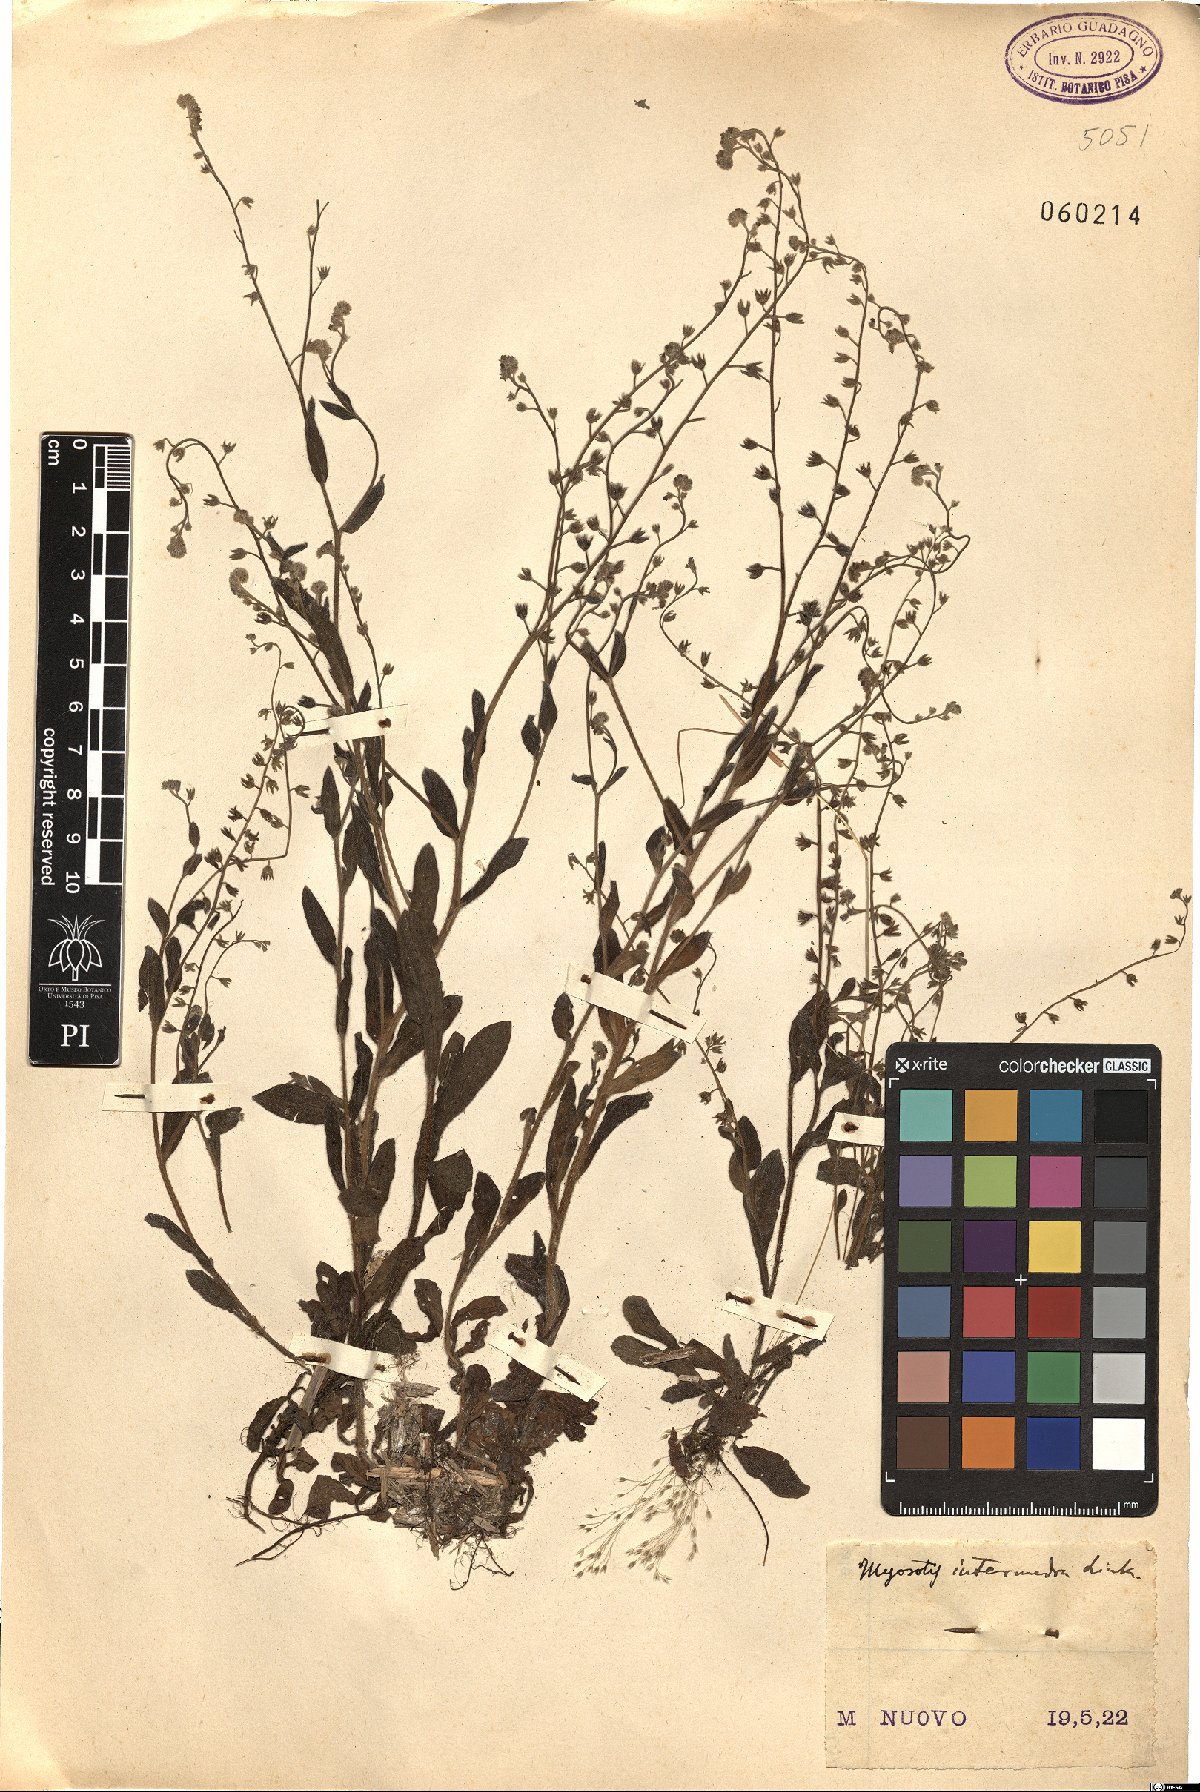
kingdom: Plantae
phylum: Tracheophyta
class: Magnoliopsida
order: Boraginales
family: Boraginaceae
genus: Myosotis
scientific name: Myosotis arvensis
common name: Field forget-me-not
